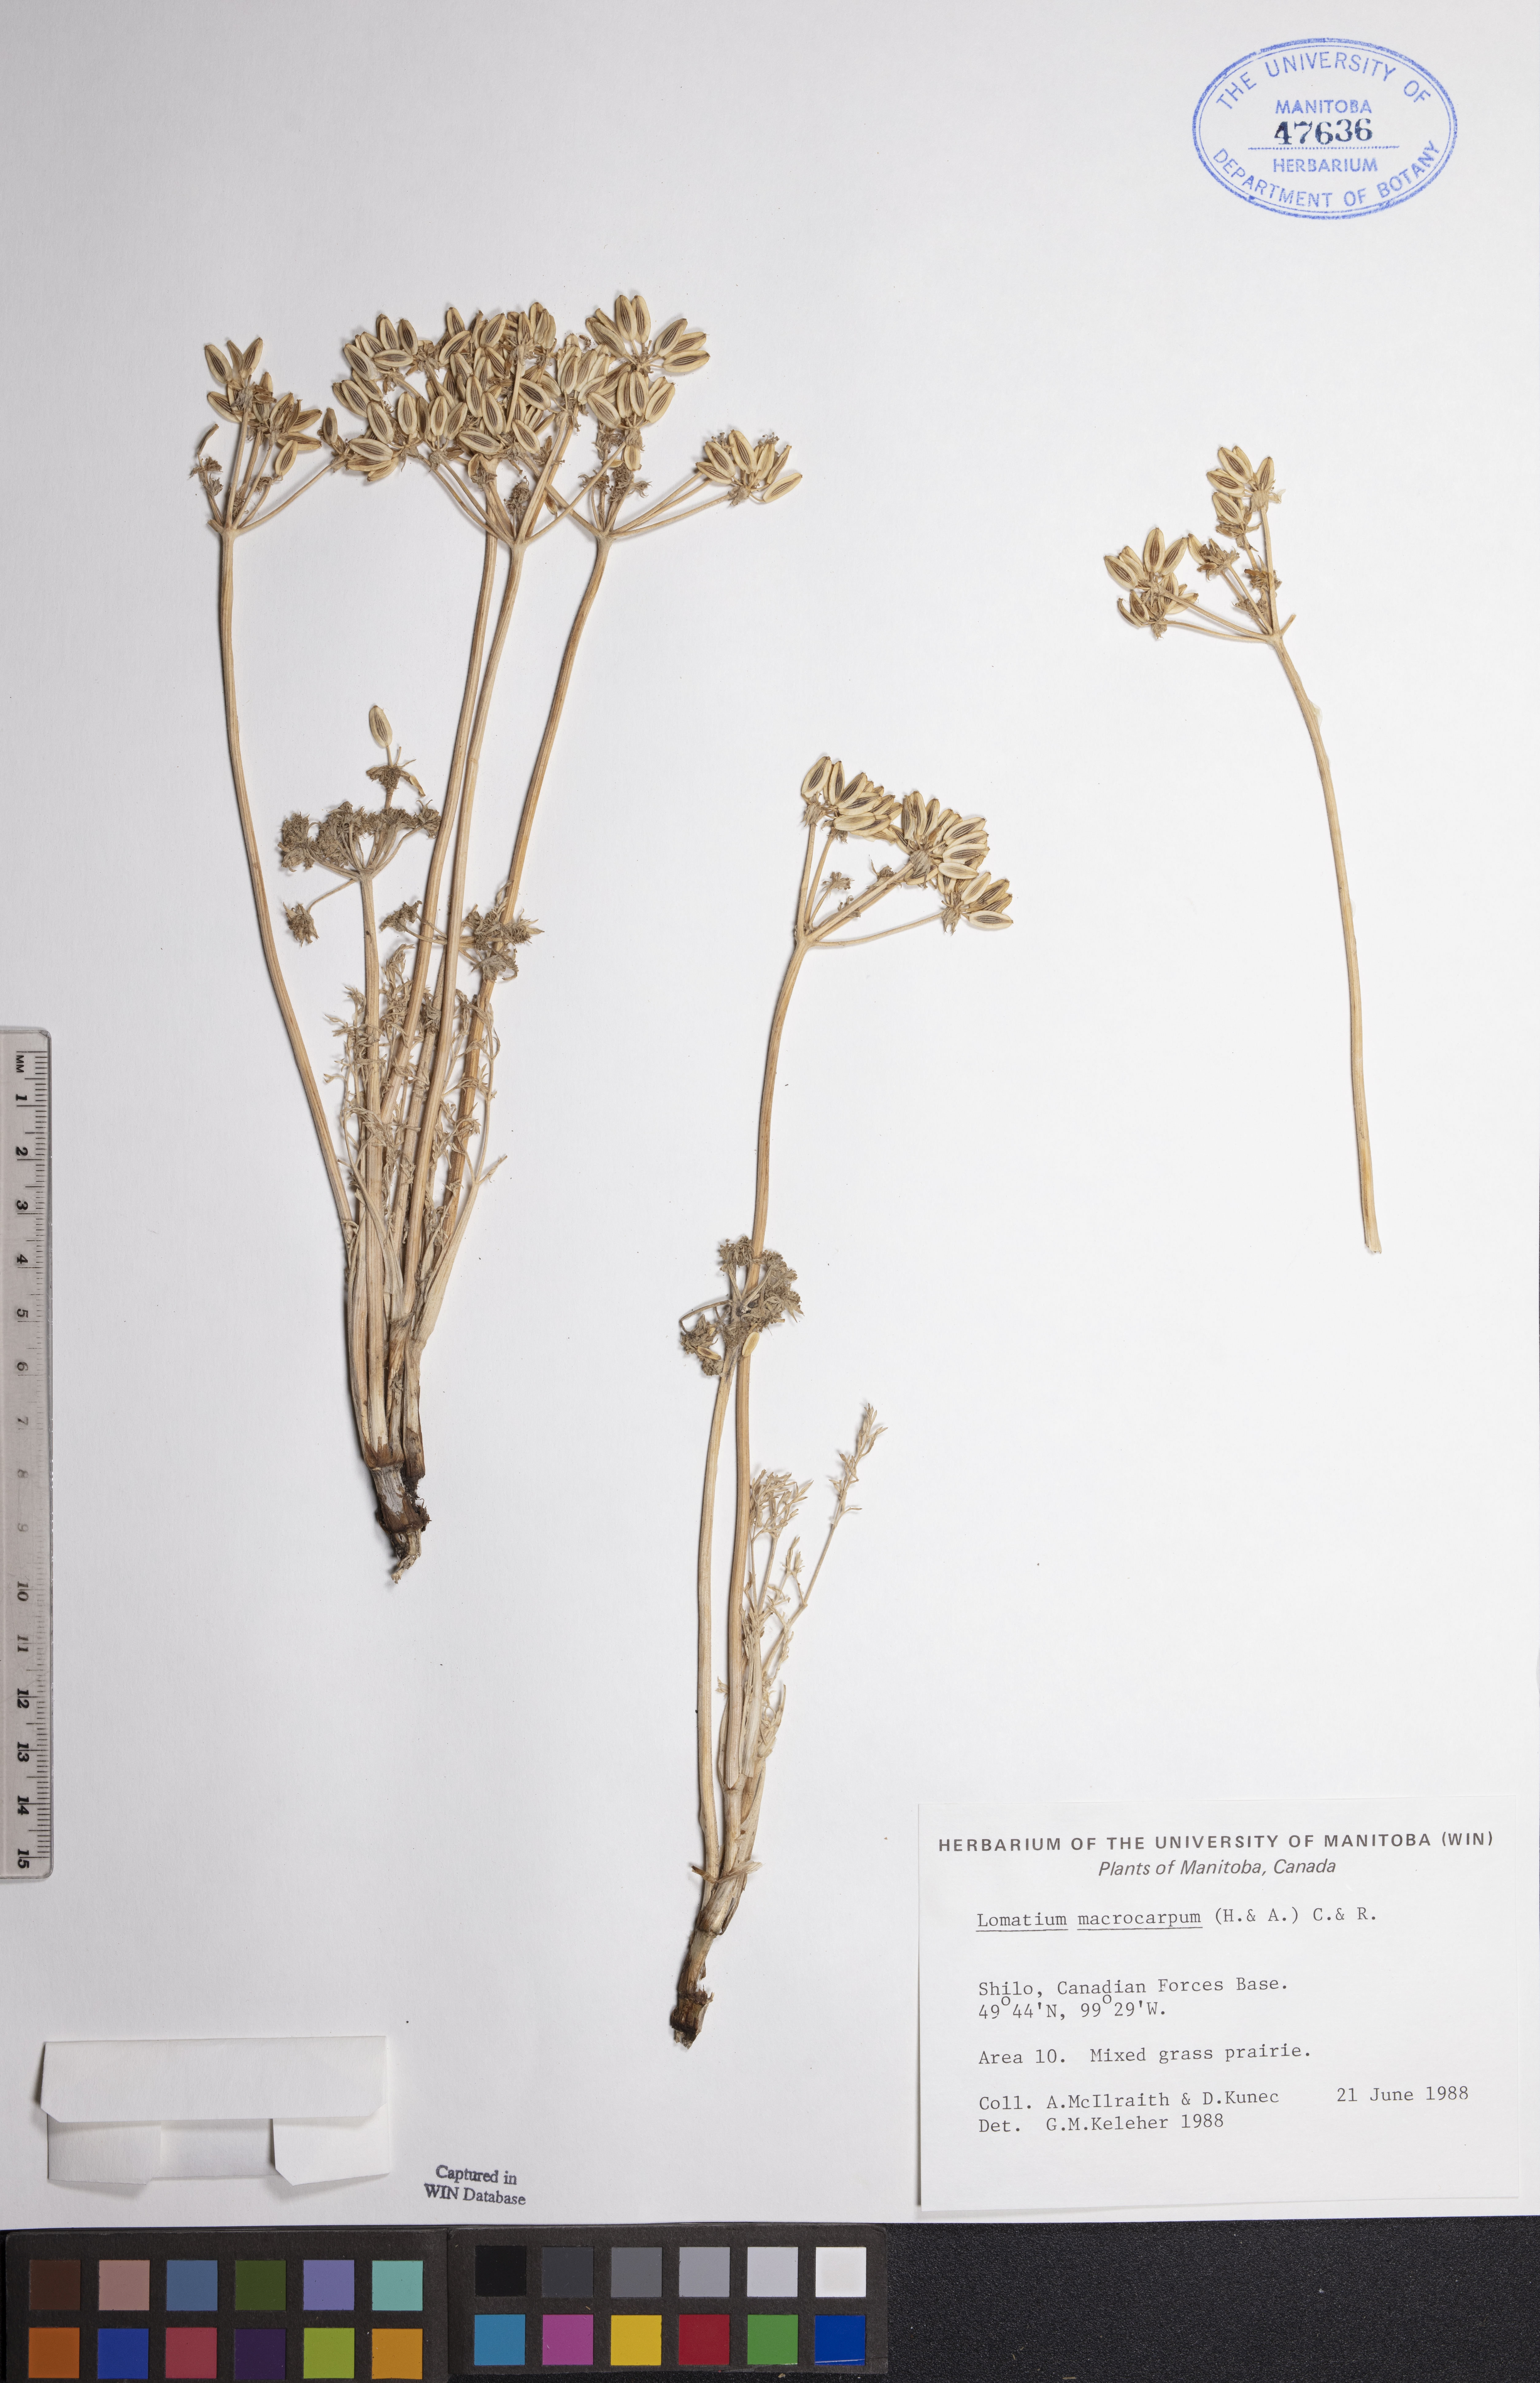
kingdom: Plantae
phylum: Tracheophyta
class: Magnoliopsida
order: Apiales
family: Apiaceae
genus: Lomatium
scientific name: Lomatium macrocarpum
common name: Big-seed biscuitroot
